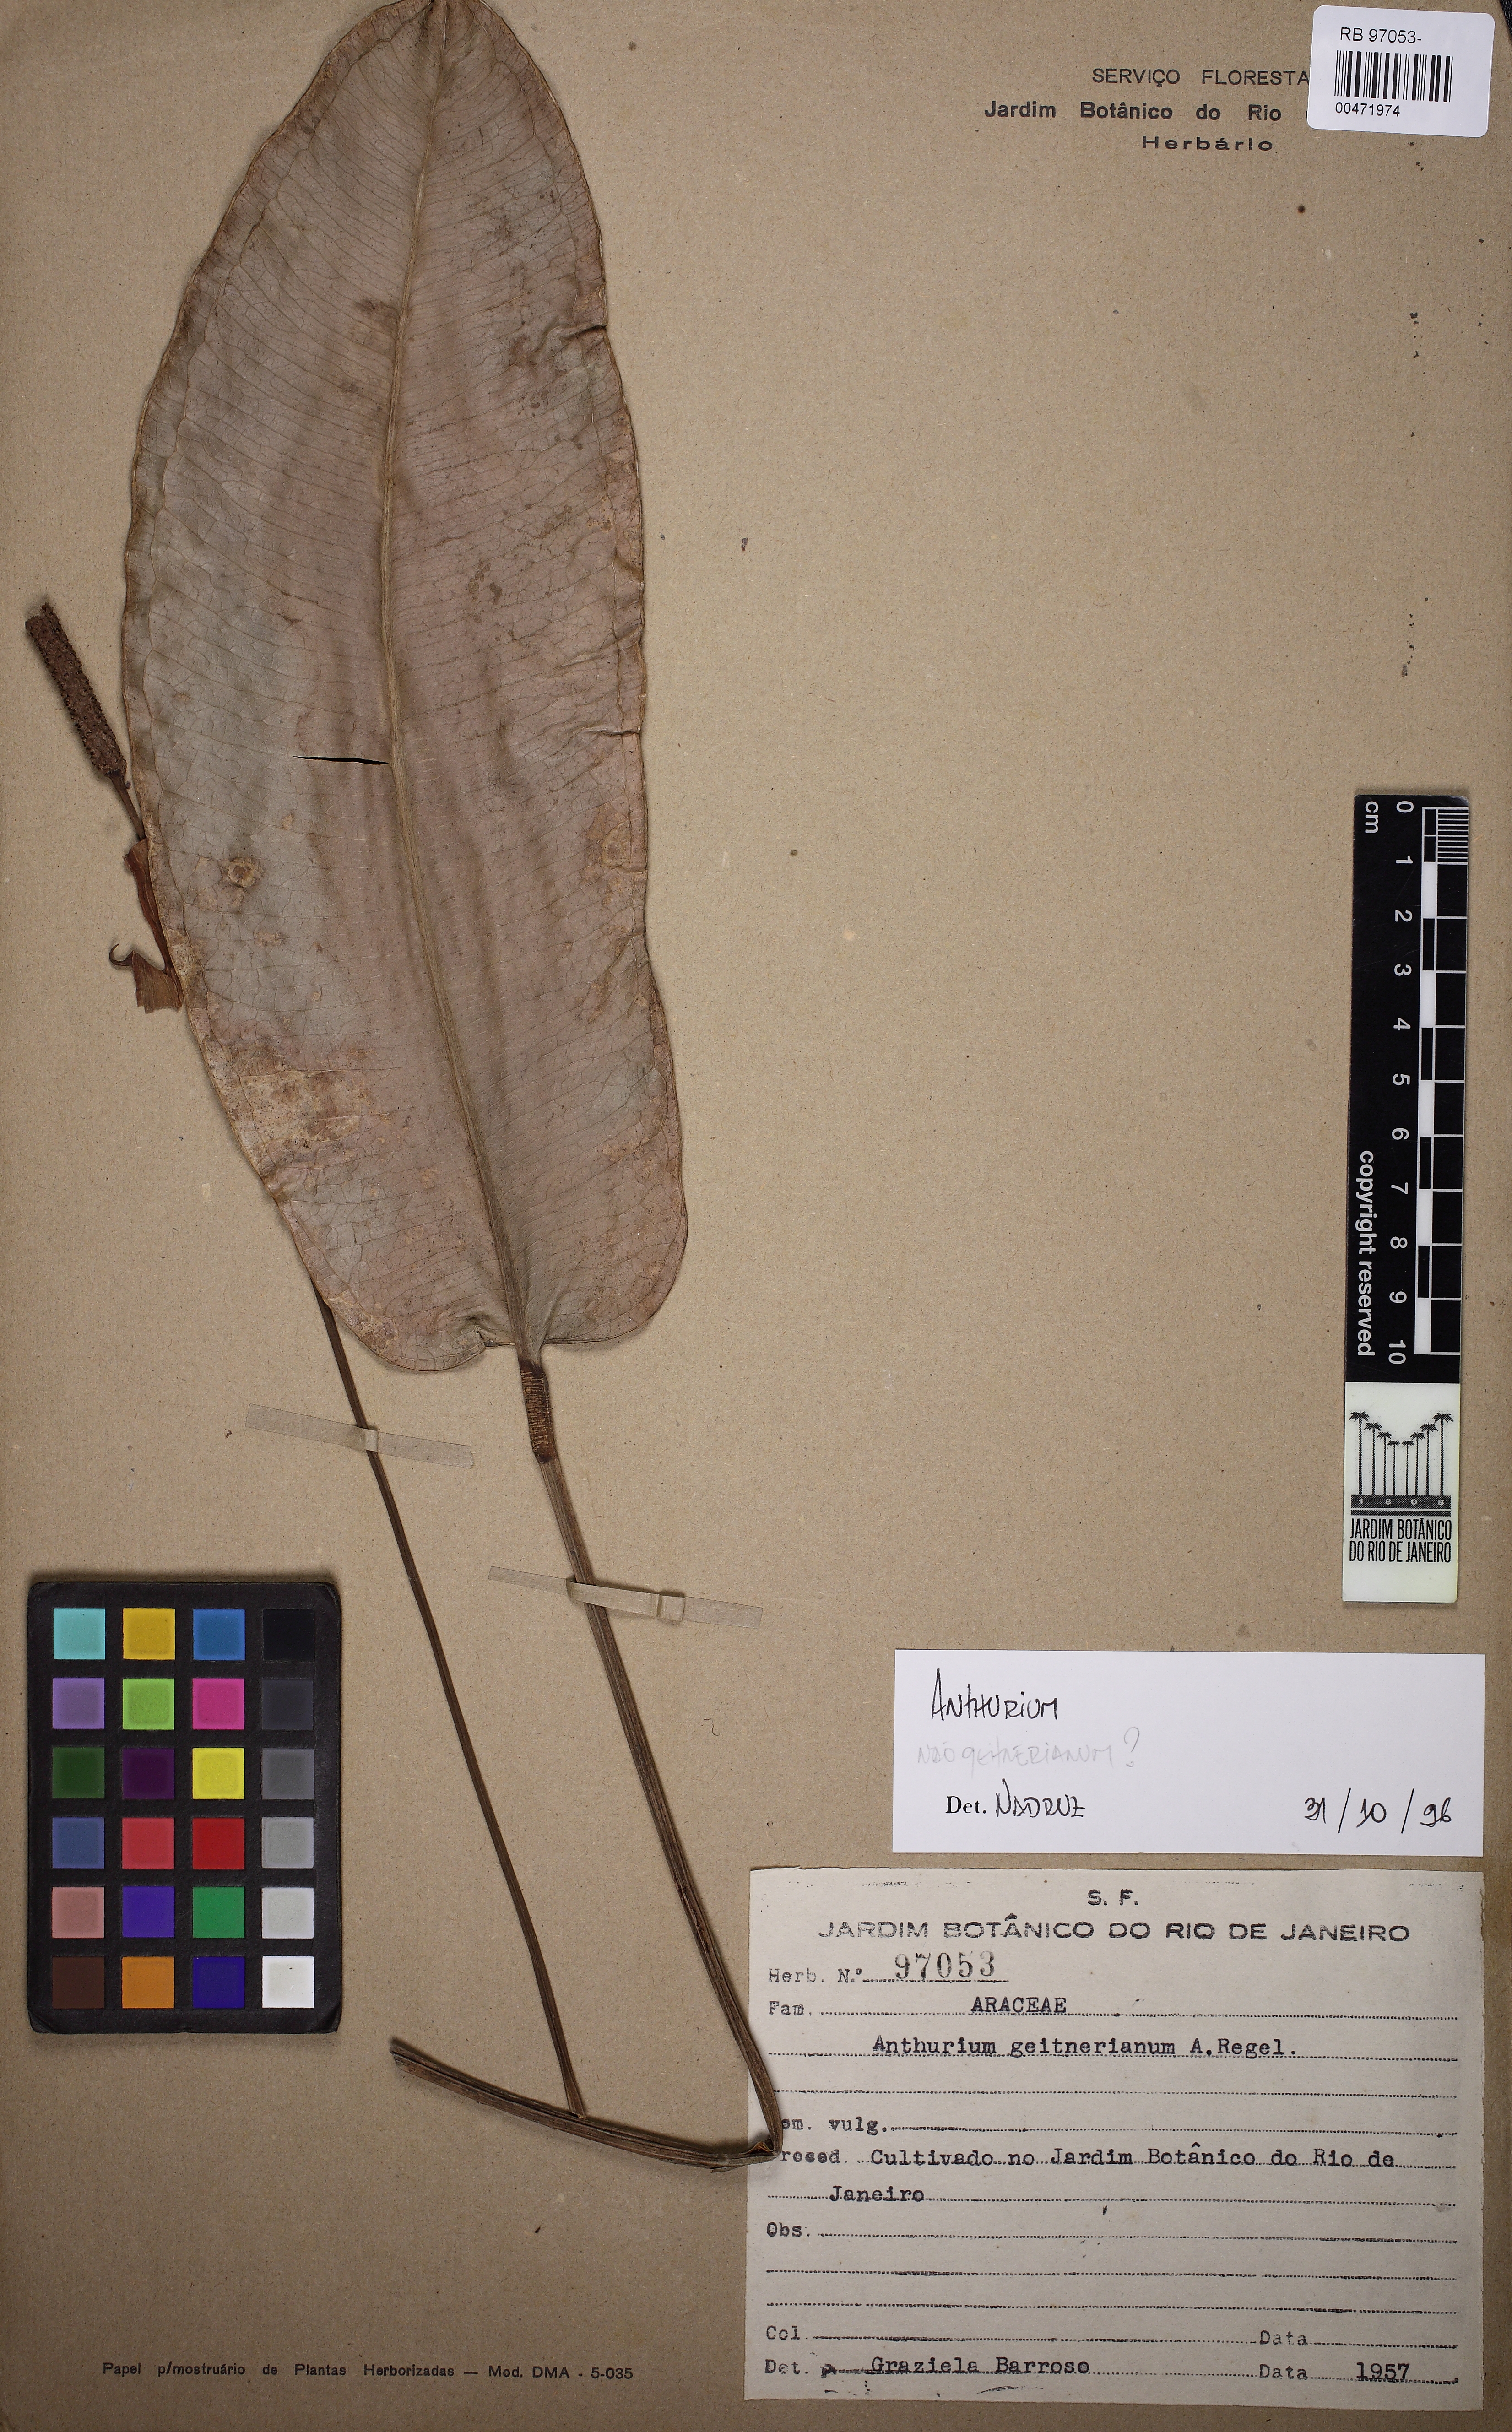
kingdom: Plantae
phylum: Tracheophyta
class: Liliopsida
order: Alismatales
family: Araceae
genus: Anthurium
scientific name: Anthurium
